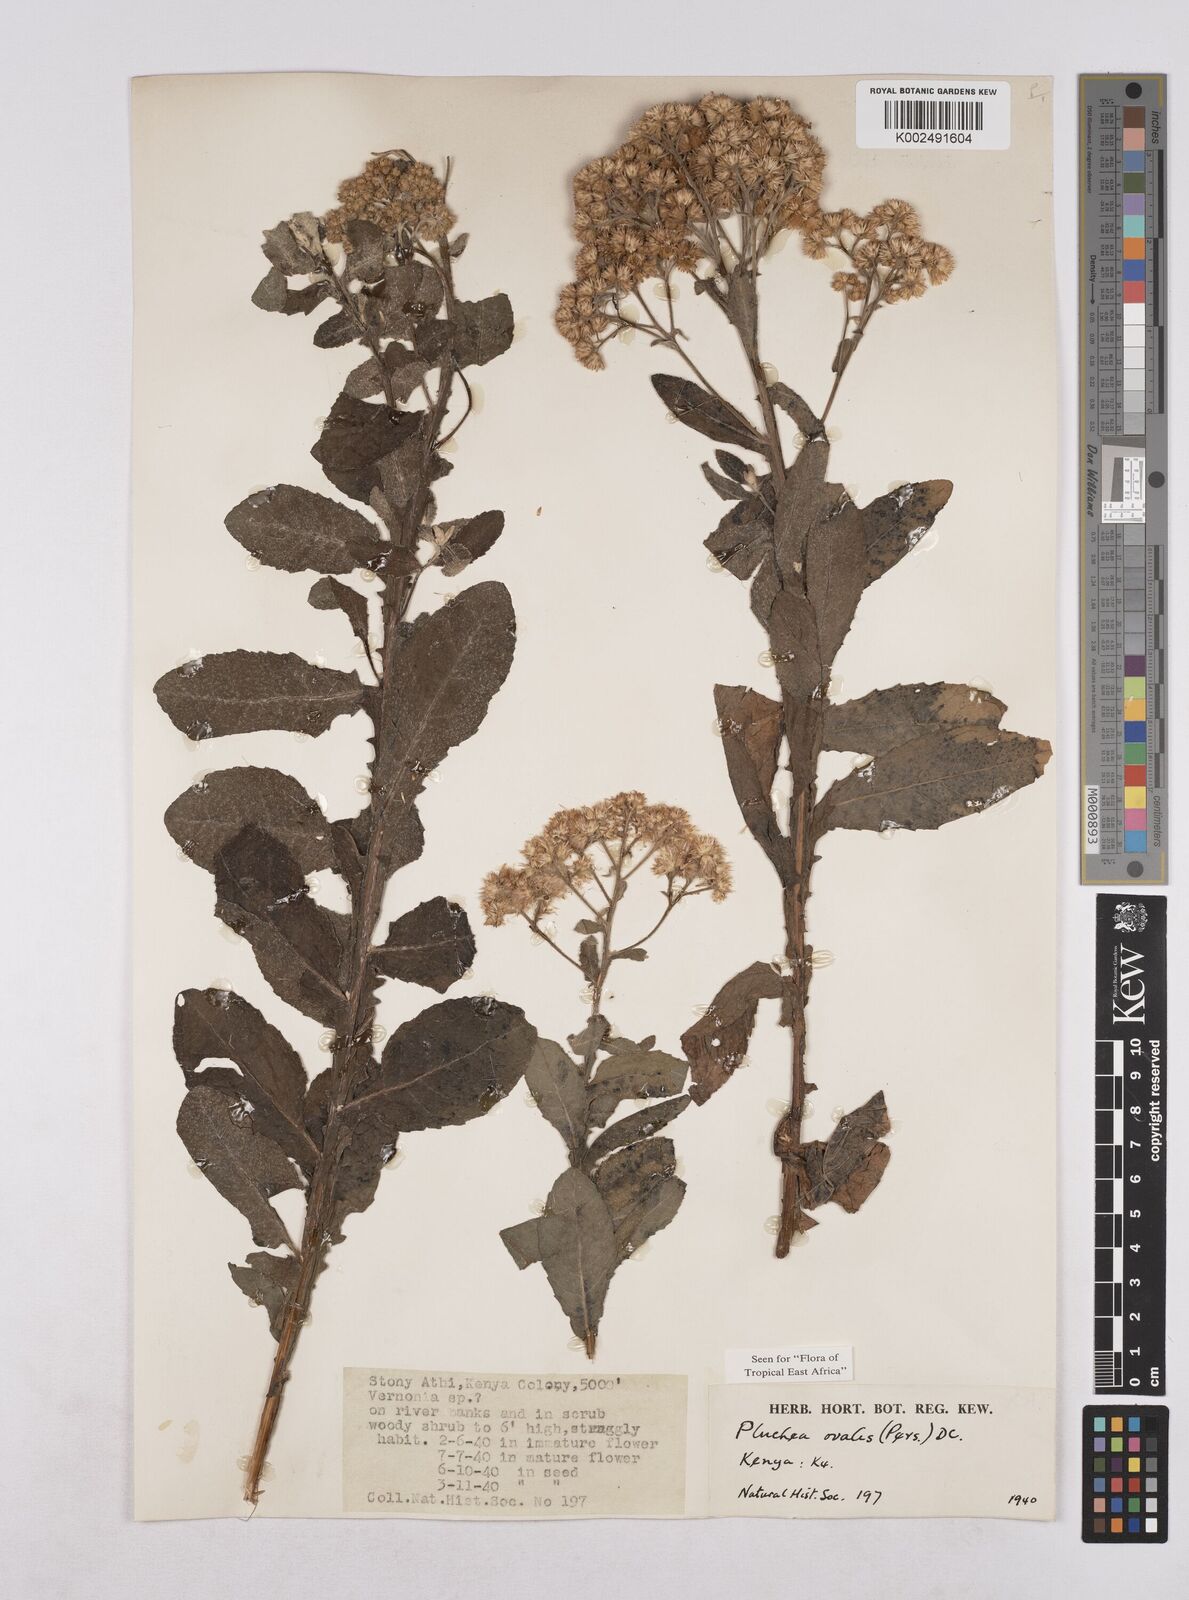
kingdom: Plantae
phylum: Tracheophyta
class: Magnoliopsida
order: Asterales
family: Asteraceae
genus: Pluchea
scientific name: Pluchea ovalis
